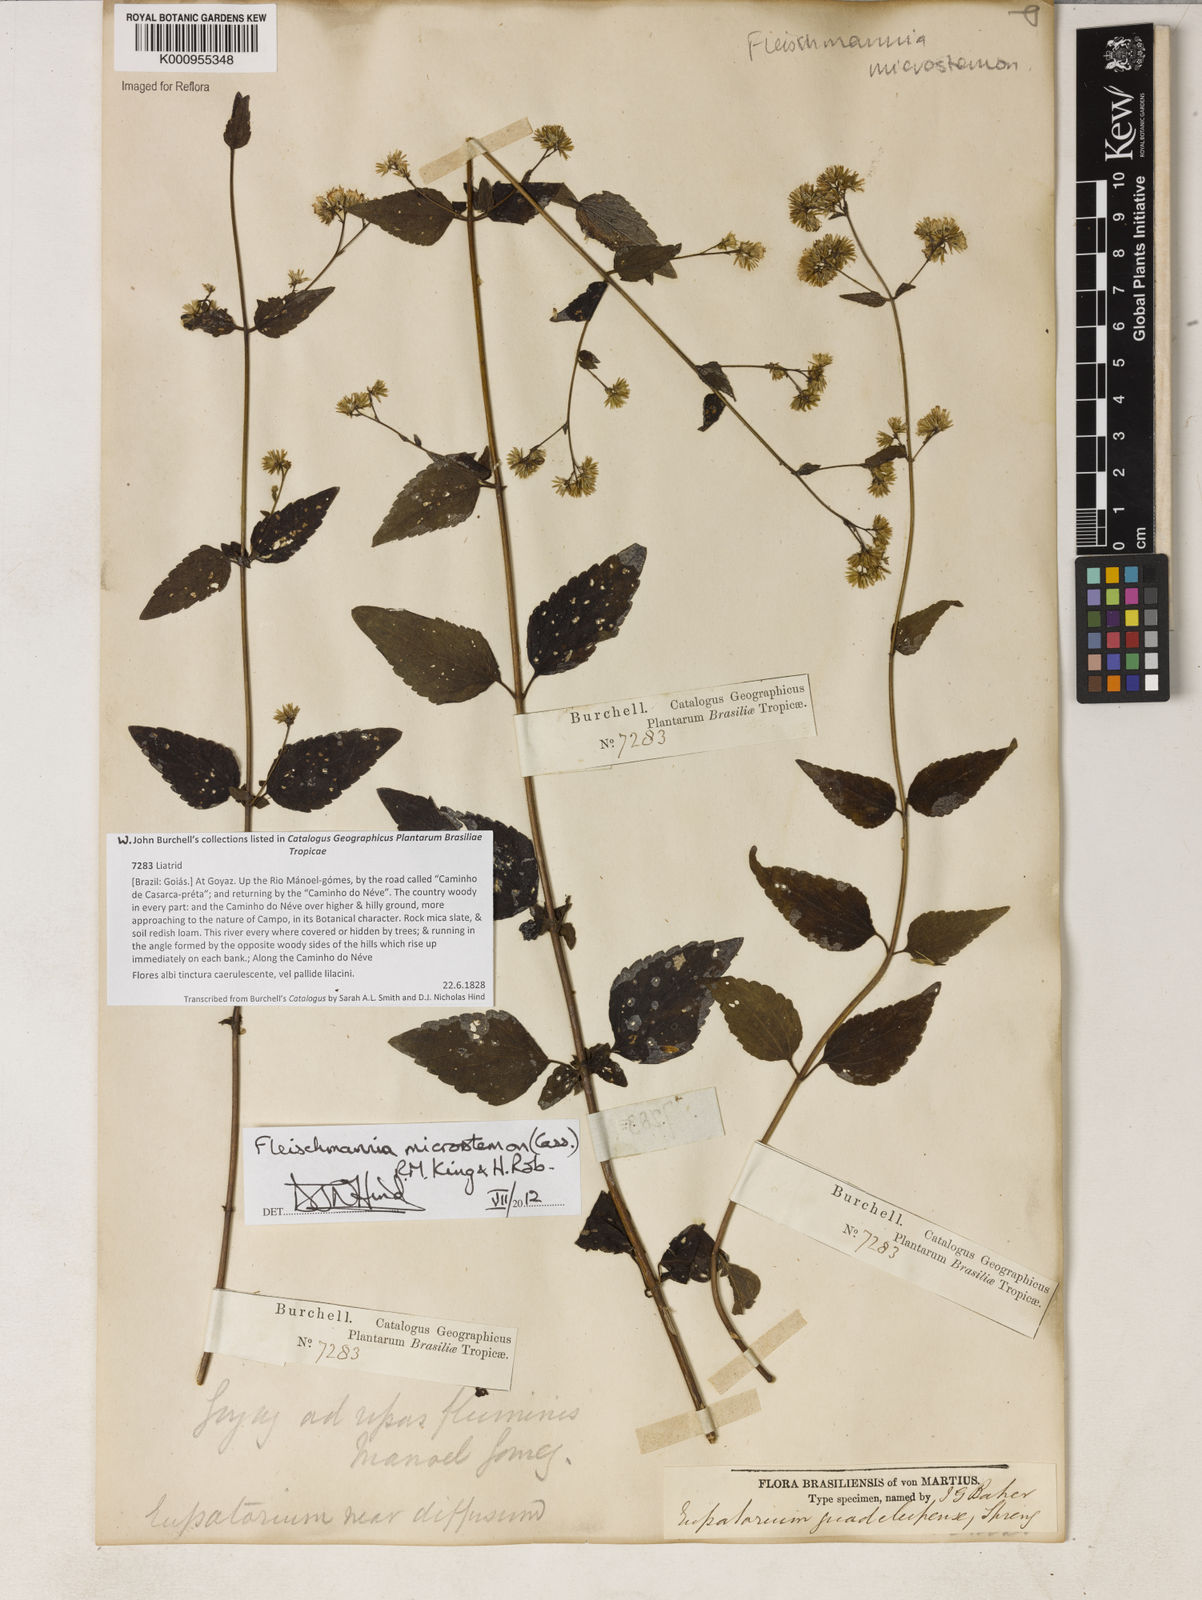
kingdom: Plantae
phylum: Tracheophyta
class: Magnoliopsida
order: Asterales
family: Asteraceae
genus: Fleischmannia
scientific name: Fleischmannia microstemon
